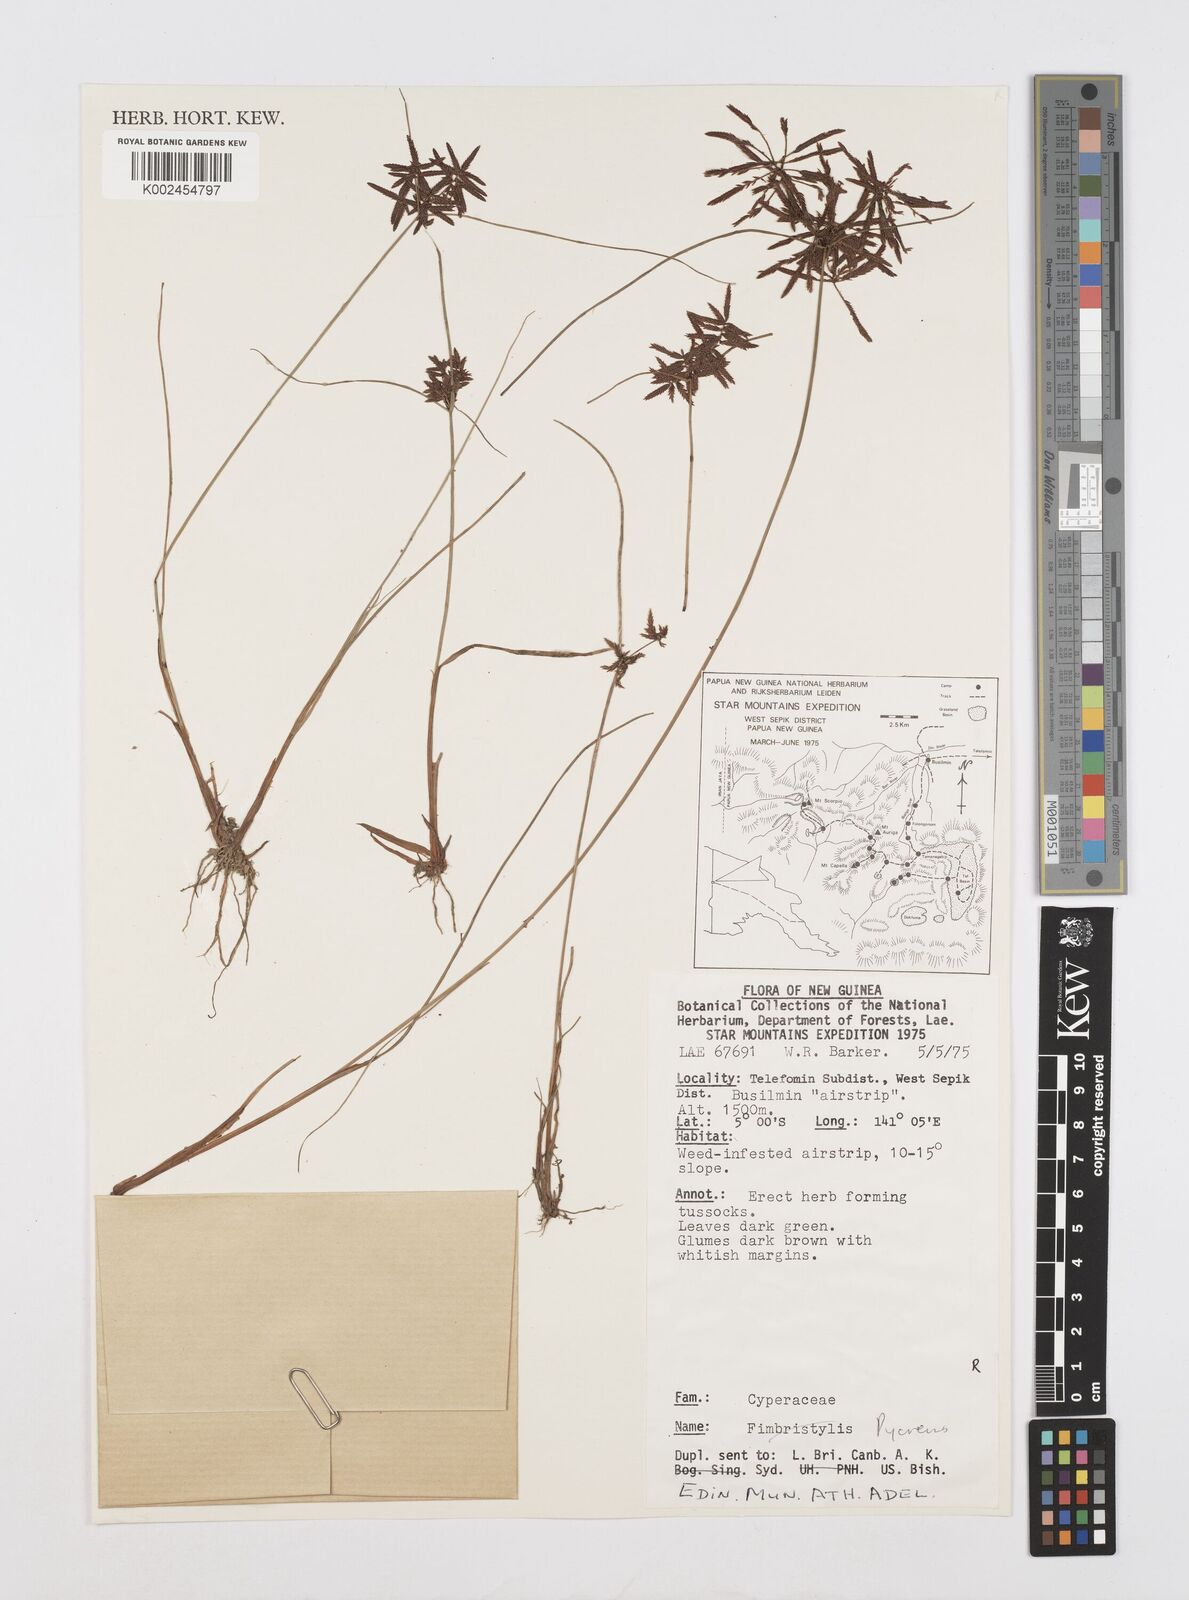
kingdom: Plantae
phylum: Tracheophyta
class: Liliopsida
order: Poales
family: Cyperaceae
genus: Cyperus
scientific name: Cyperus
